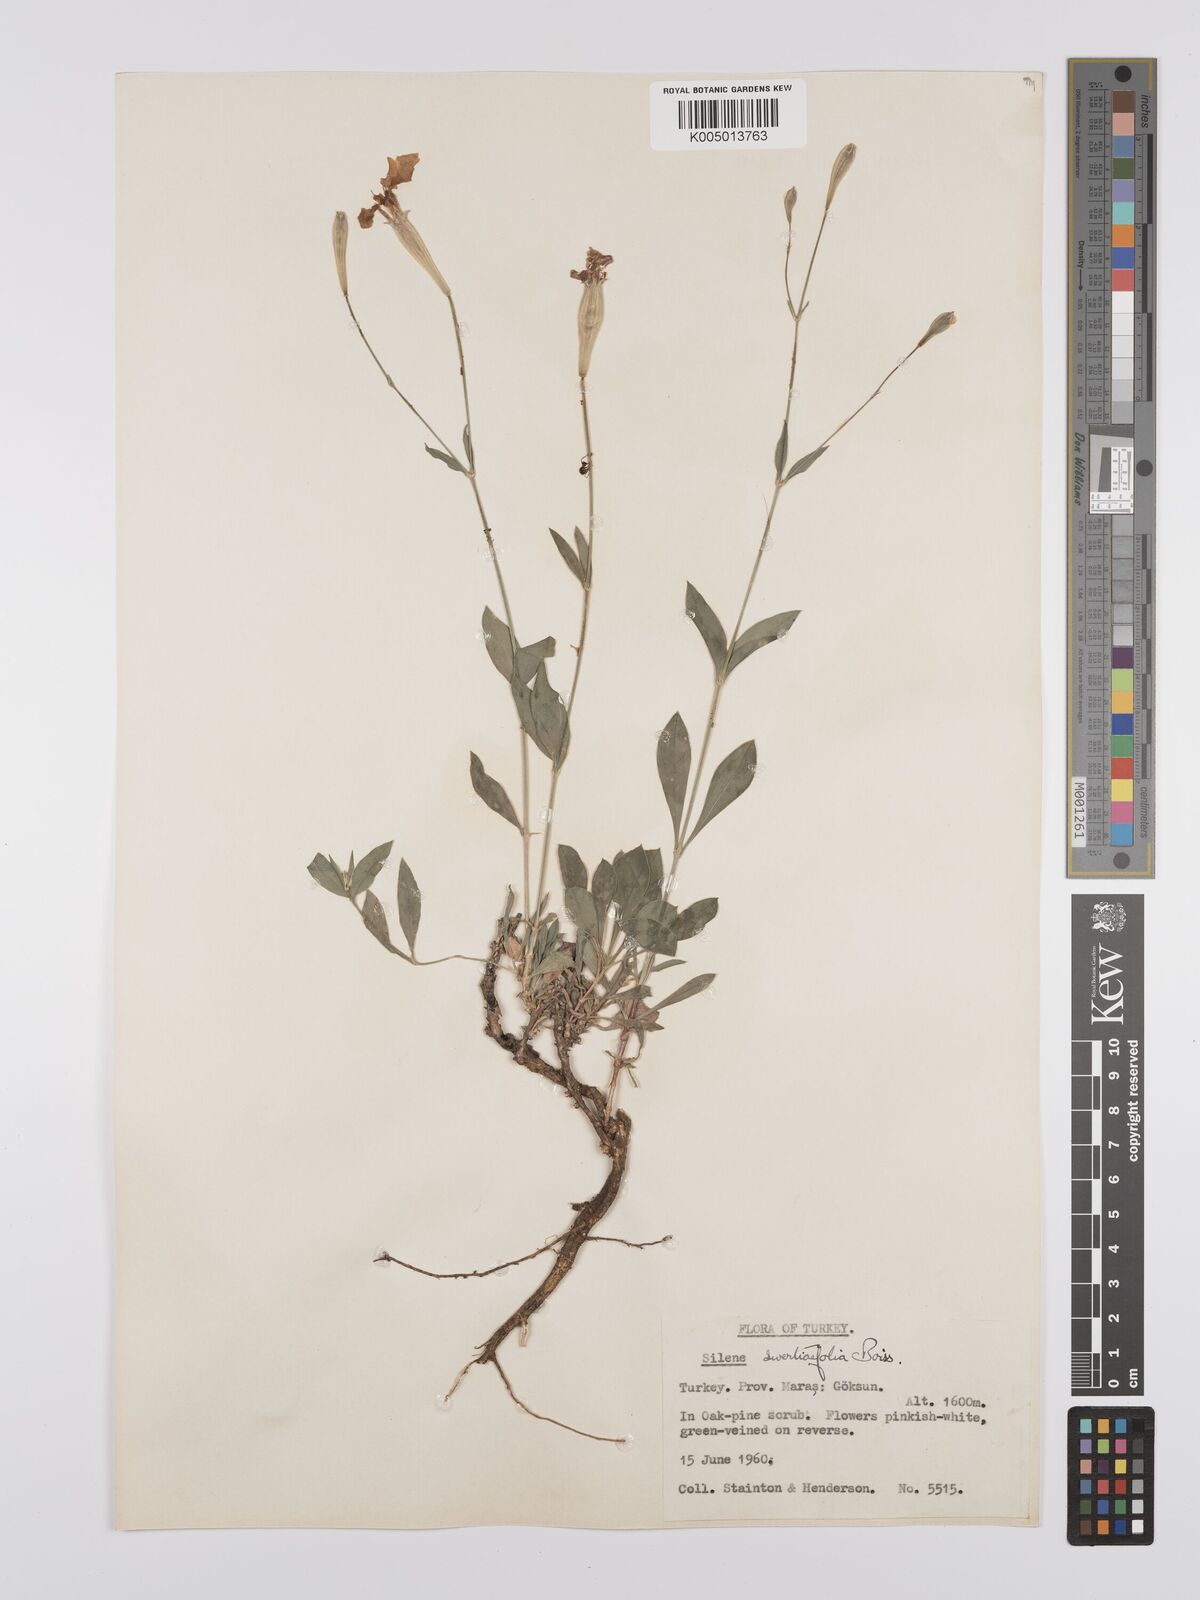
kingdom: Plantae
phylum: Tracheophyta
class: Magnoliopsida
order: Caryophyllales
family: Caryophyllaceae
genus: Silene
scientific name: Silene swertiifolia
